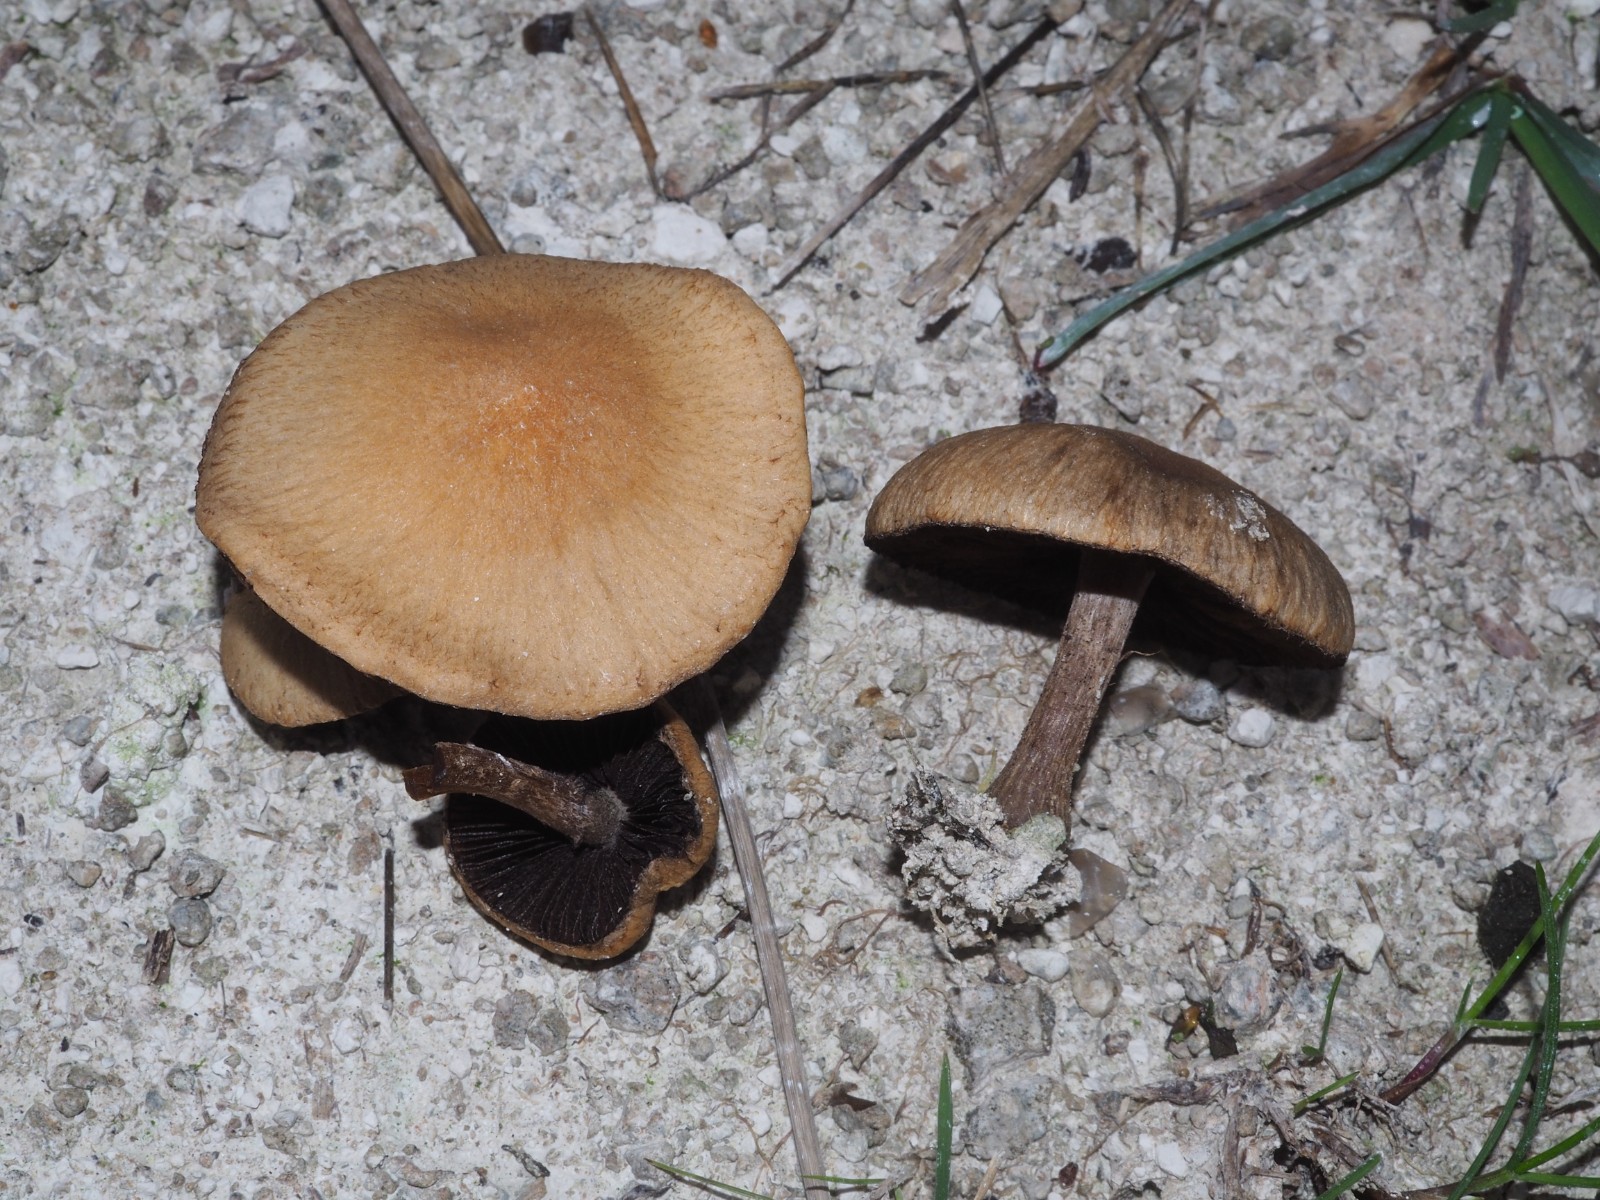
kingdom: Fungi
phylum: Basidiomycota
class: Agaricomycetes
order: Agaricales
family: Psathyrellaceae
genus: Lacrymaria
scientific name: Lacrymaria lacrymabunda
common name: grædende mørkhat
